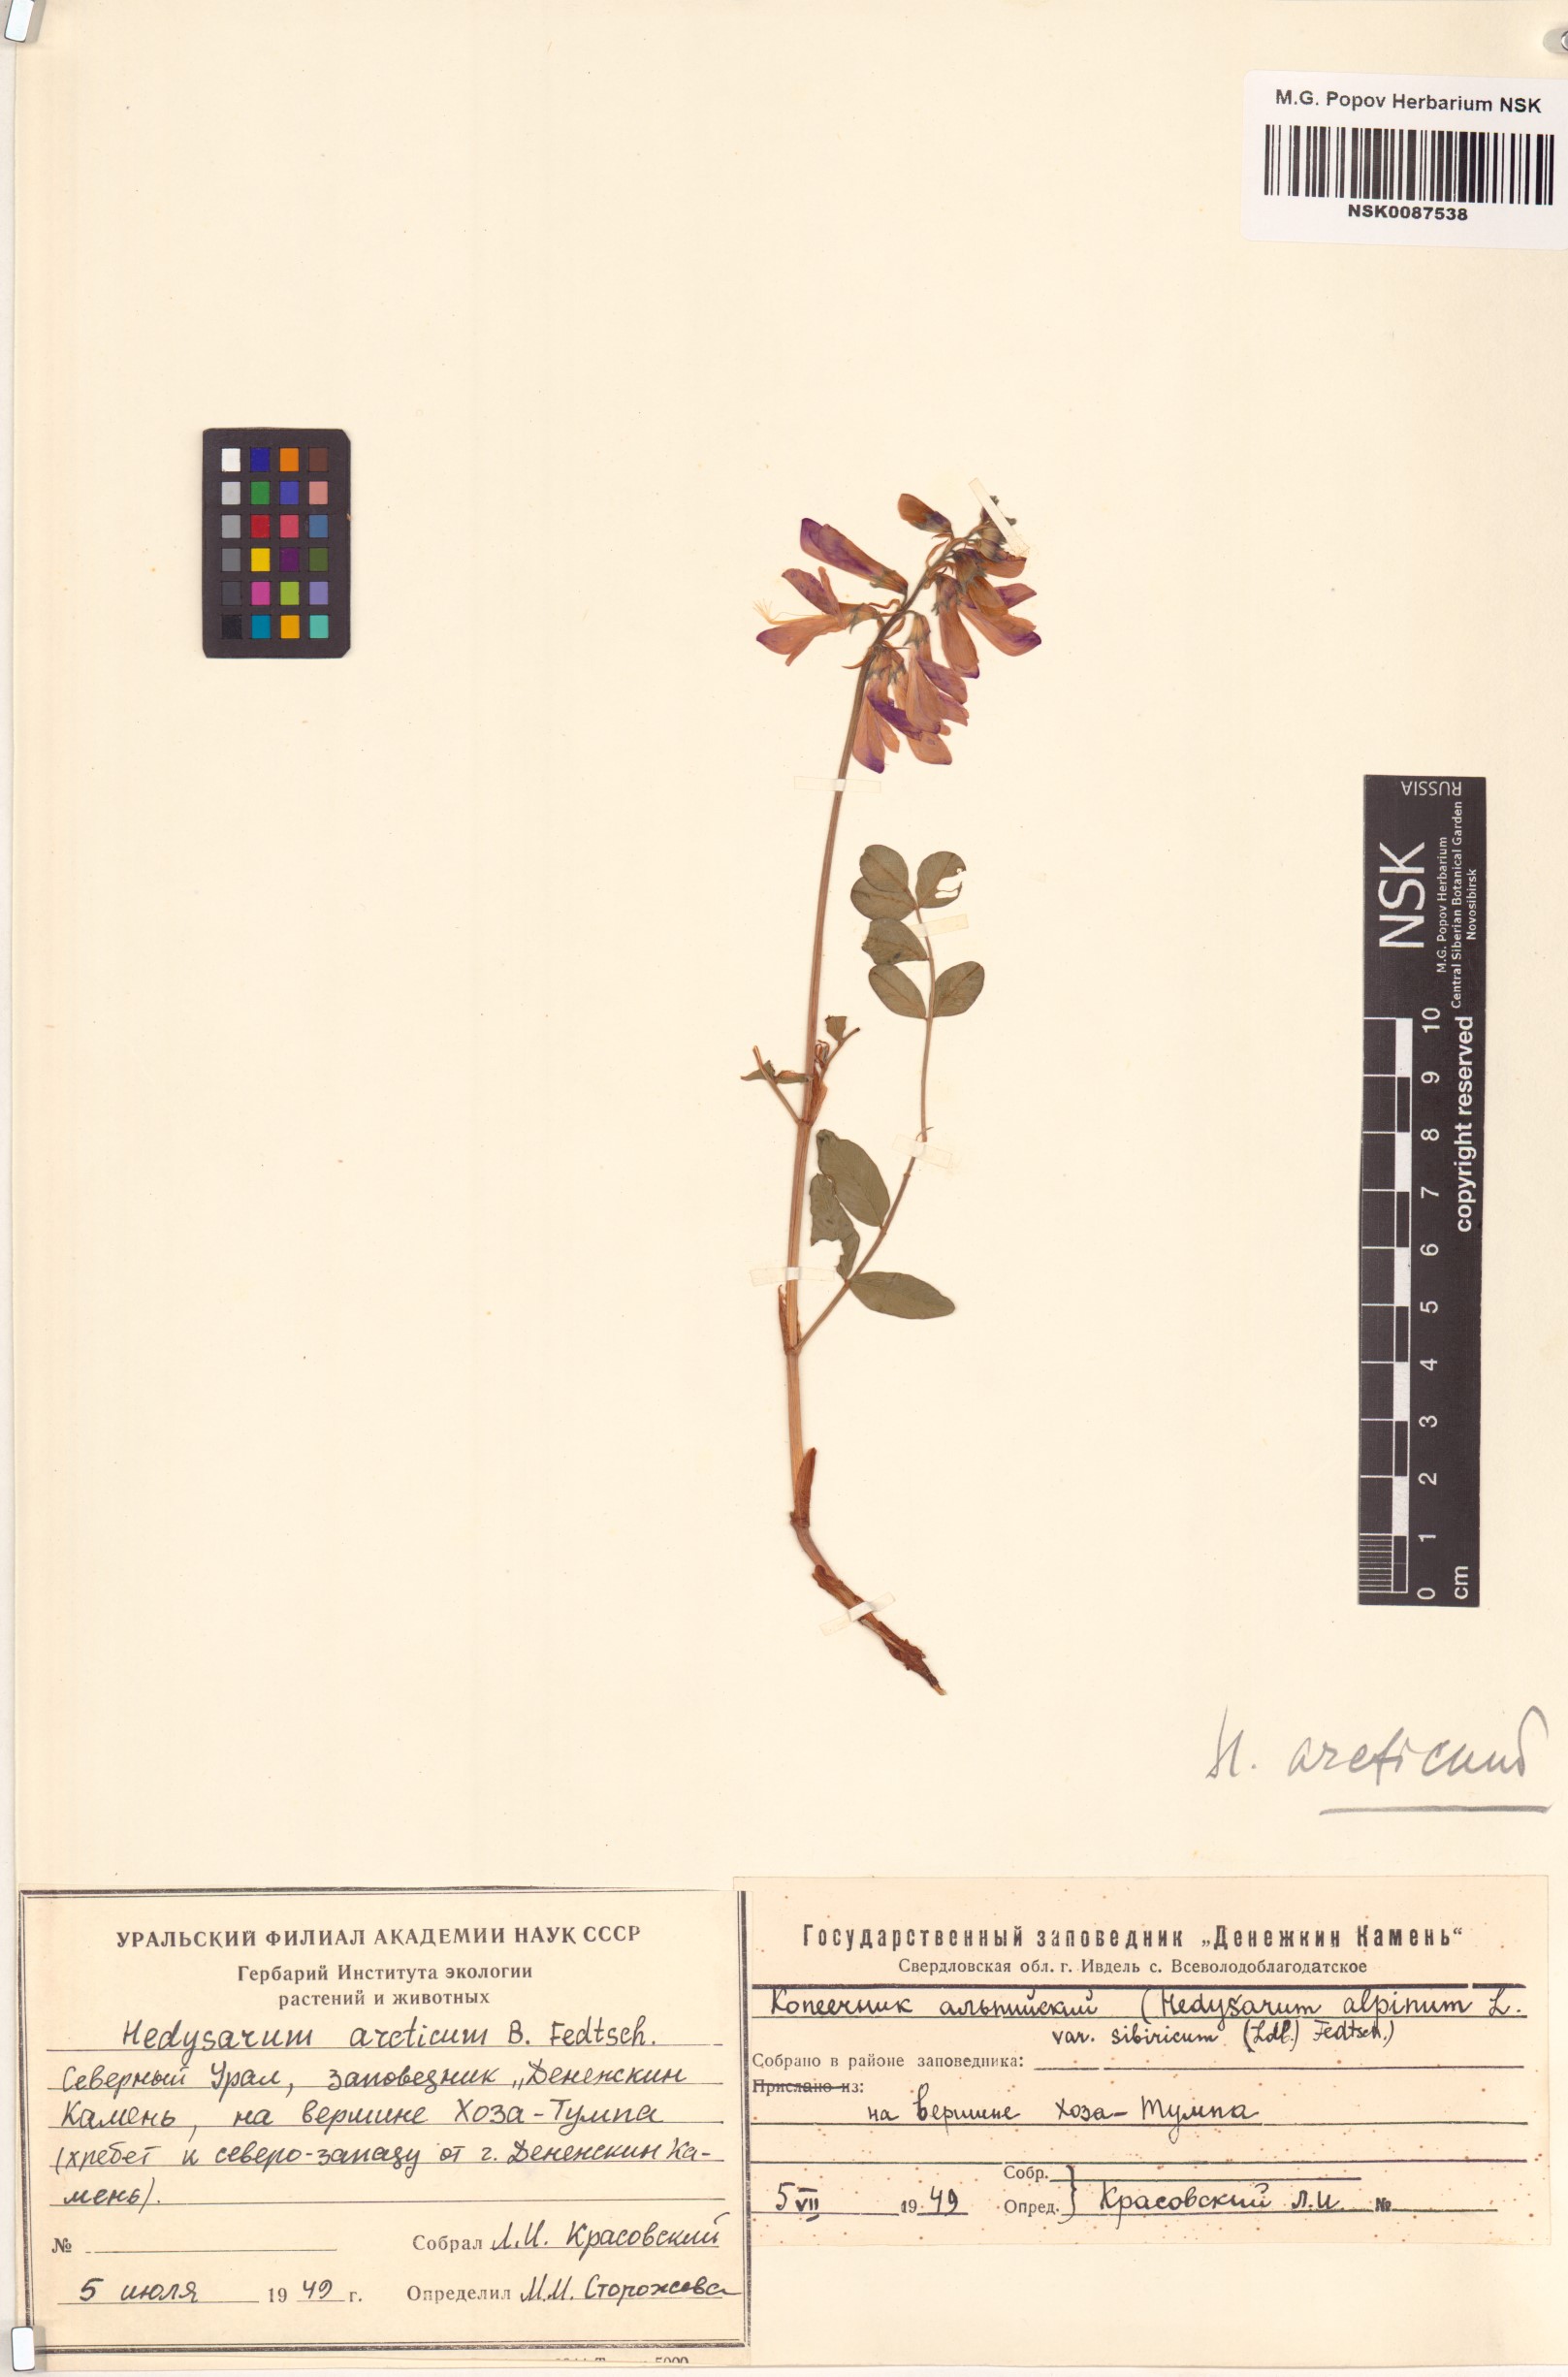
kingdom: Plantae
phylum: Tracheophyta
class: Magnoliopsida
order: Fabales
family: Fabaceae
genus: Hedysarum
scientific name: Hedysarum hedysaroides
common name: Alpine french-honeysuckle
